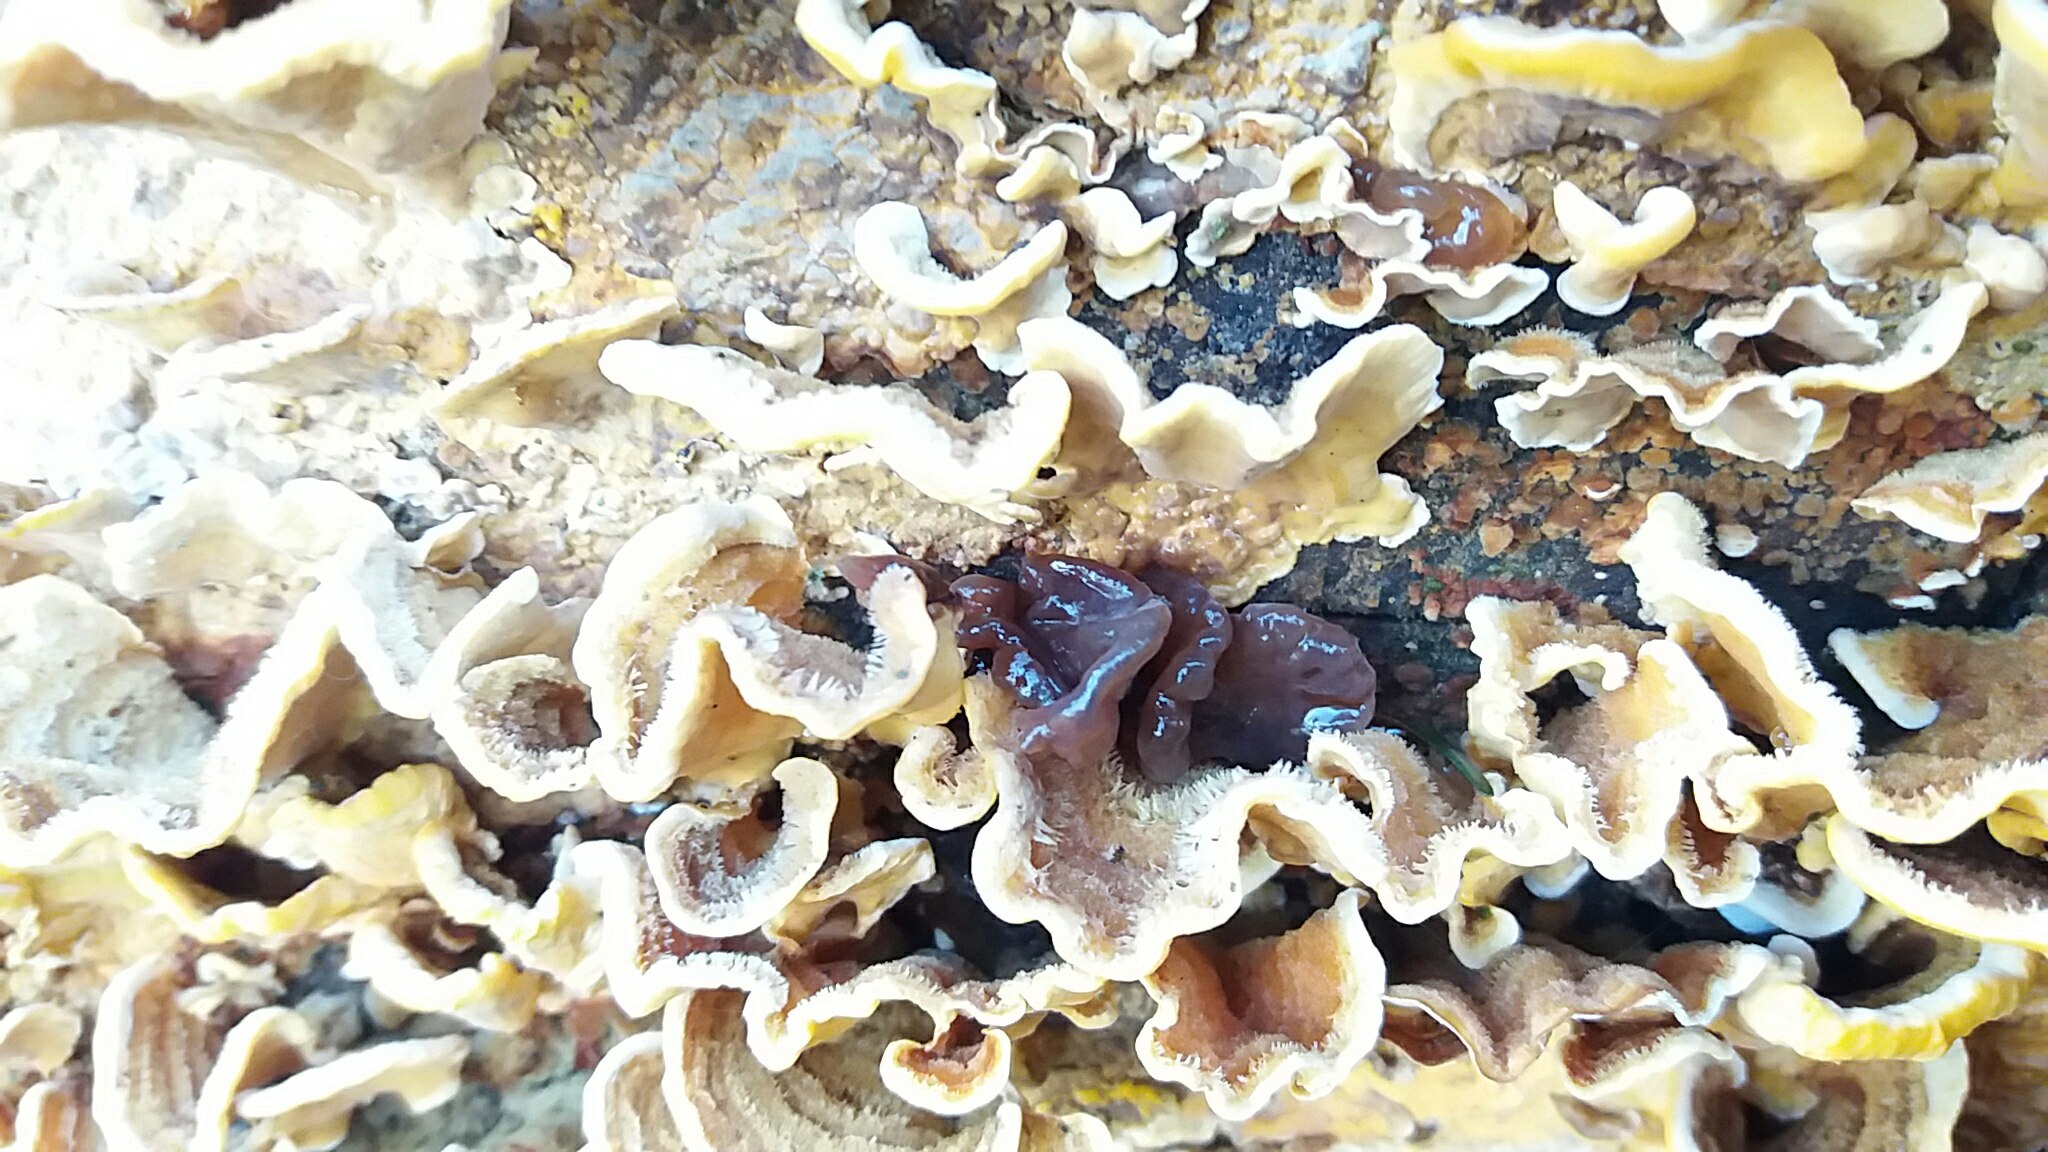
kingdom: Fungi
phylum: Ascomycota
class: Leotiomycetes
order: Helotiales
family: Gelatinodiscaceae
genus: Ascocoryne
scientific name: Ascocoryne
